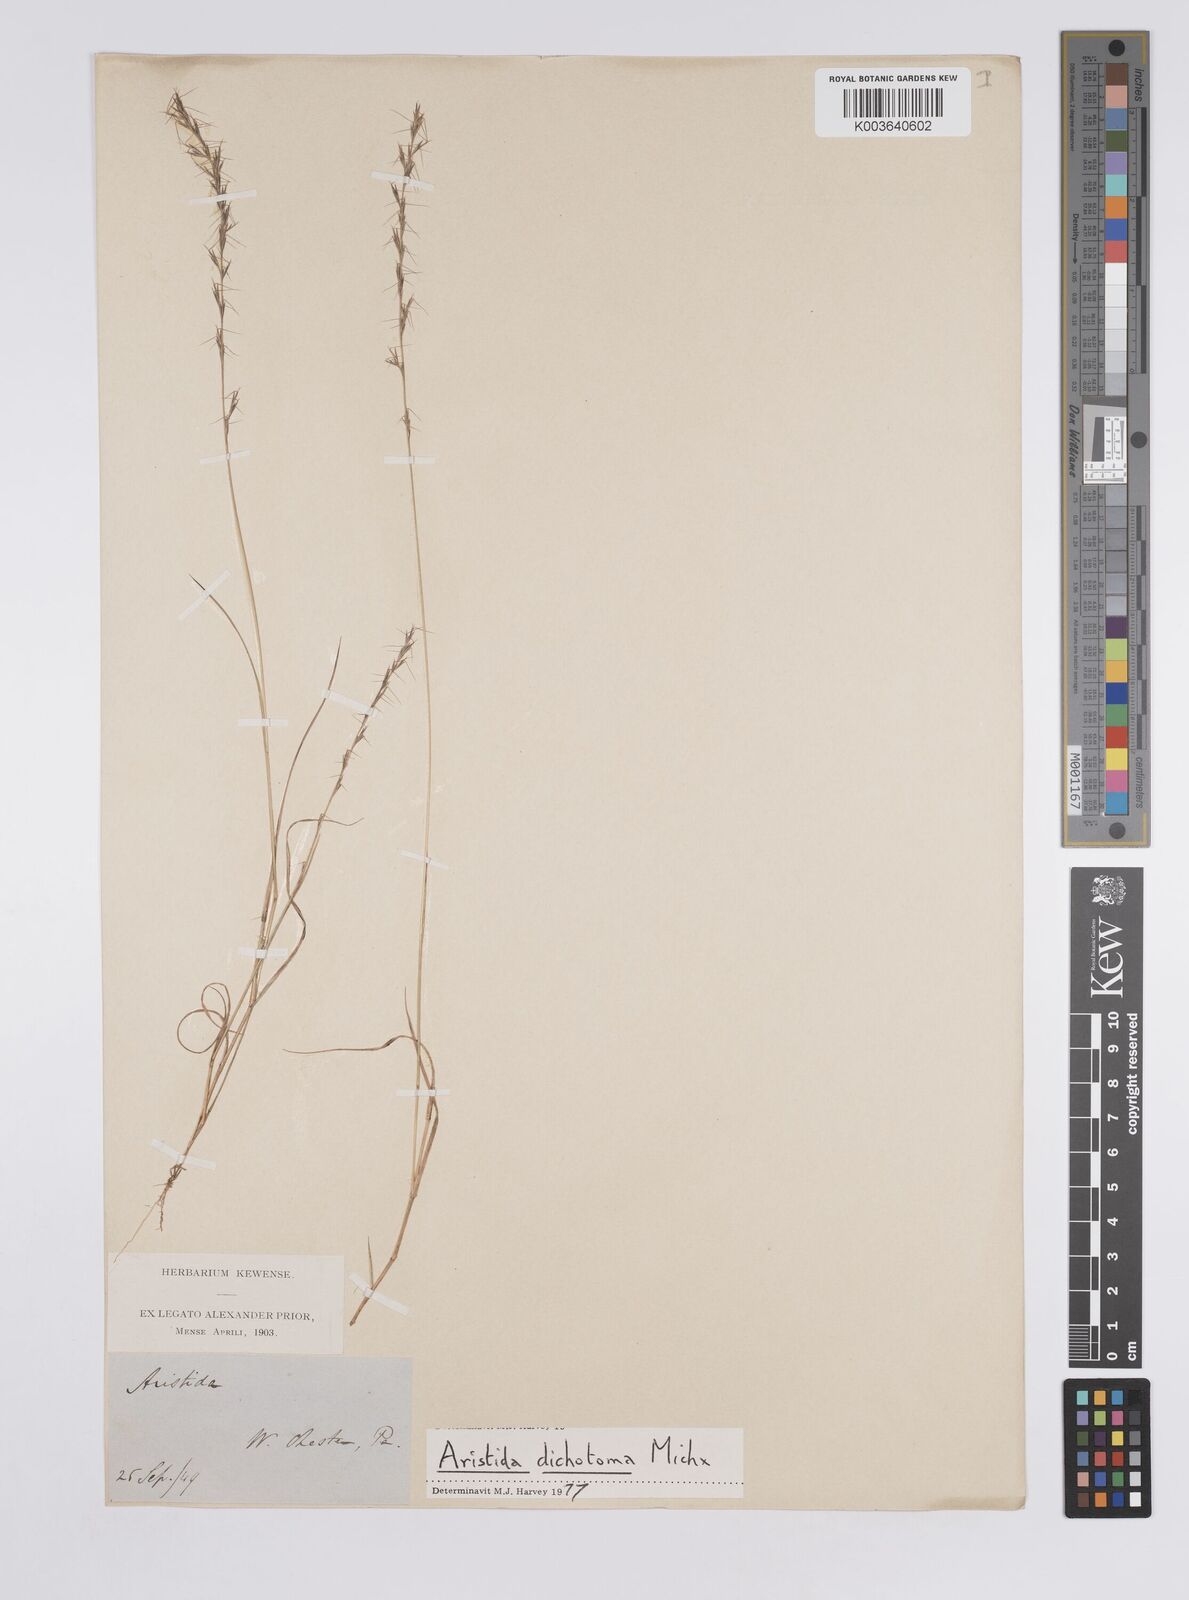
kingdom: Plantae
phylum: Tracheophyta
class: Liliopsida
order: Poales
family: Poaceae
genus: Aristida
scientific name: Aristida dichotoma
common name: Churchmouse three-awn
